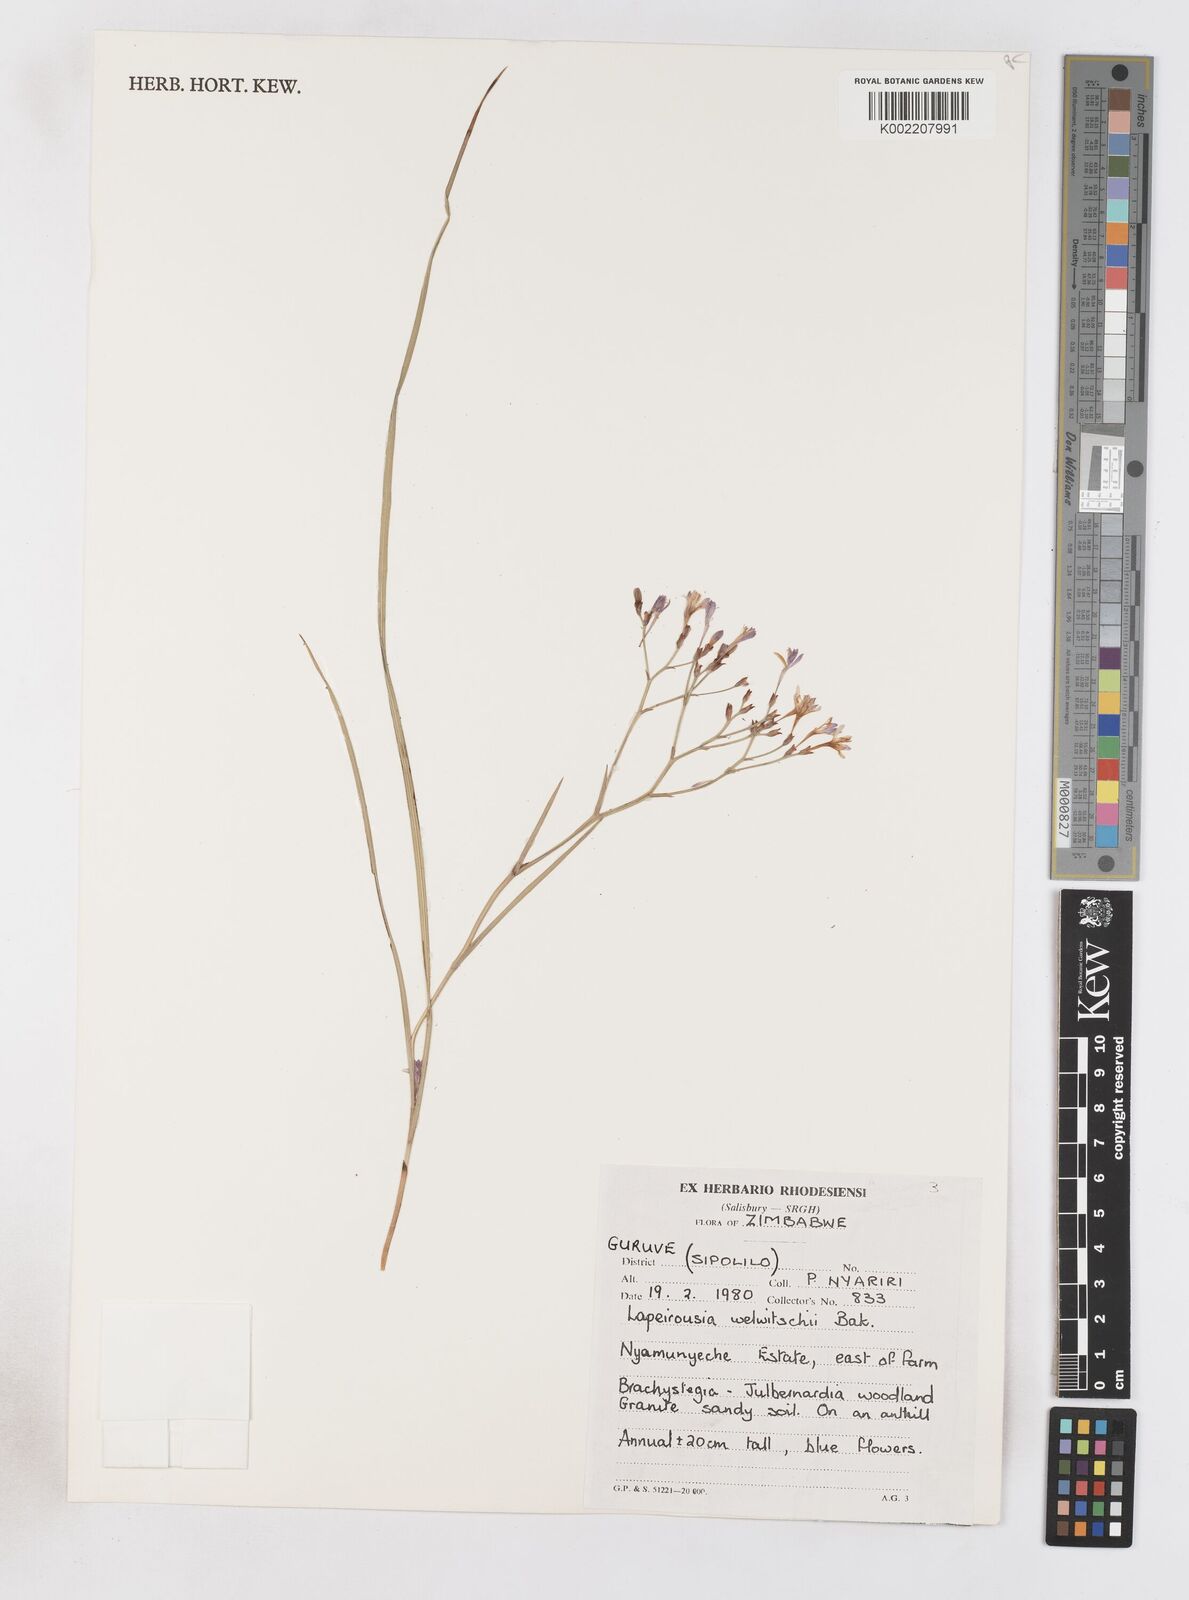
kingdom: Plantae
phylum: Tracheophyta
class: Liliopsida
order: Asparagales
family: Iridaceae
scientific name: Iridaceae
